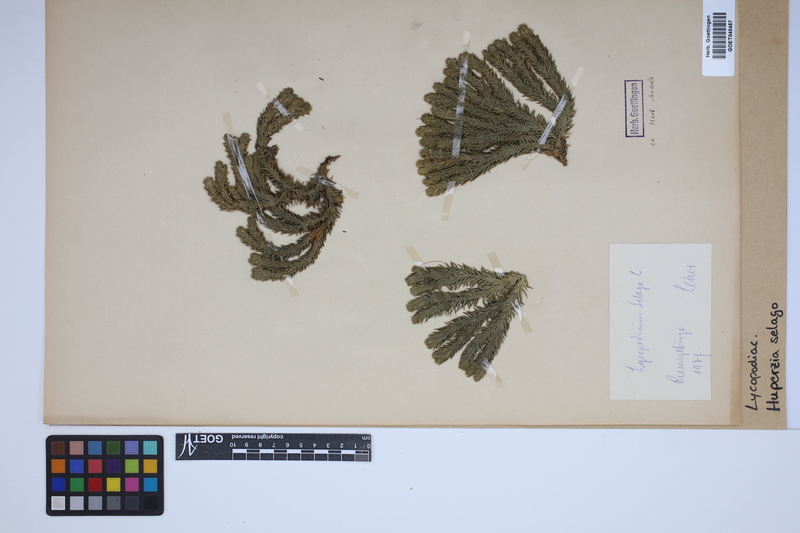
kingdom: Plantae
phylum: Tracheophyta
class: Lycopodiopsida
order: Lycopodiales
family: Lycopodiaceae
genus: Huperzia
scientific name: Huperzia selago
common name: Northern firmoss
